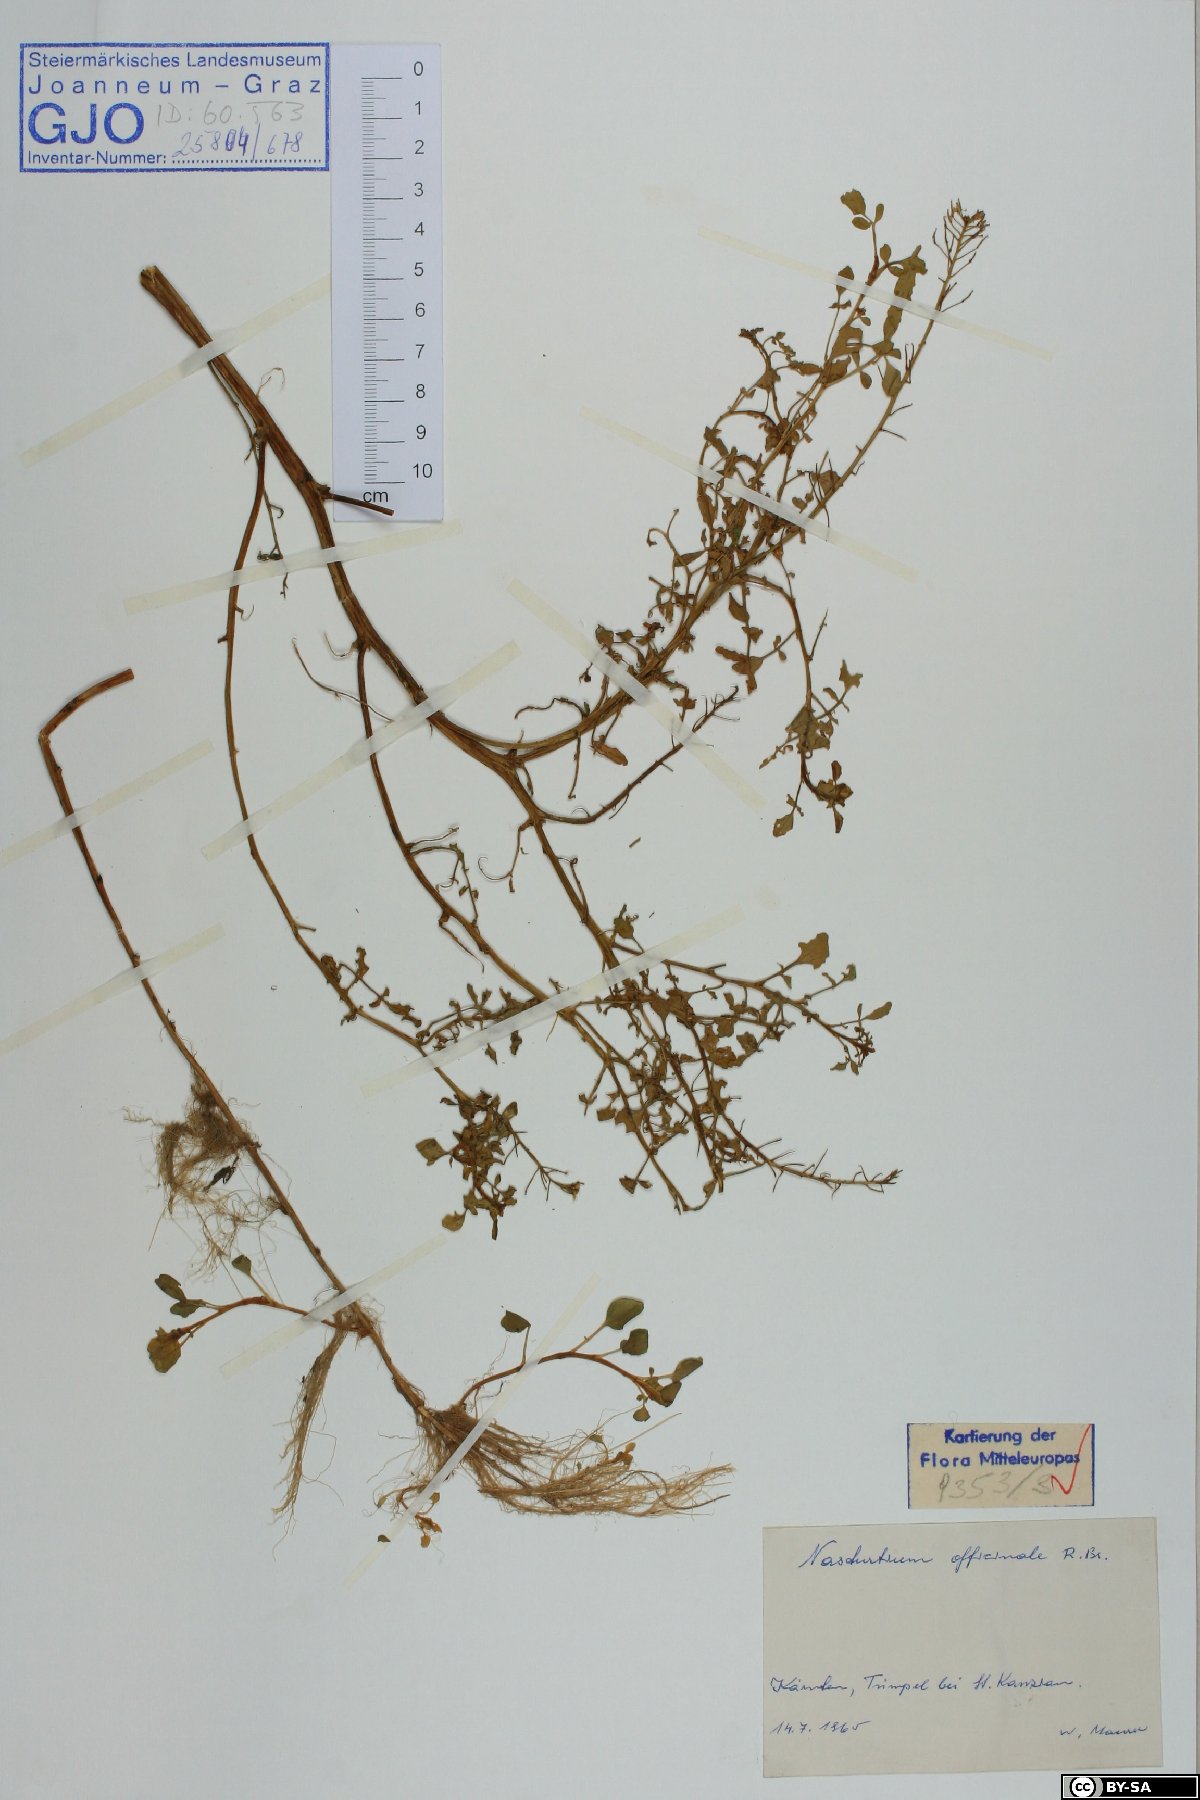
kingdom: Plantae
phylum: Tracheophyta
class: Magnoliopsida
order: Brassicales
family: Brassicaceae
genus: Nasturtium
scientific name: Nasturtium officinale
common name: Watercress
